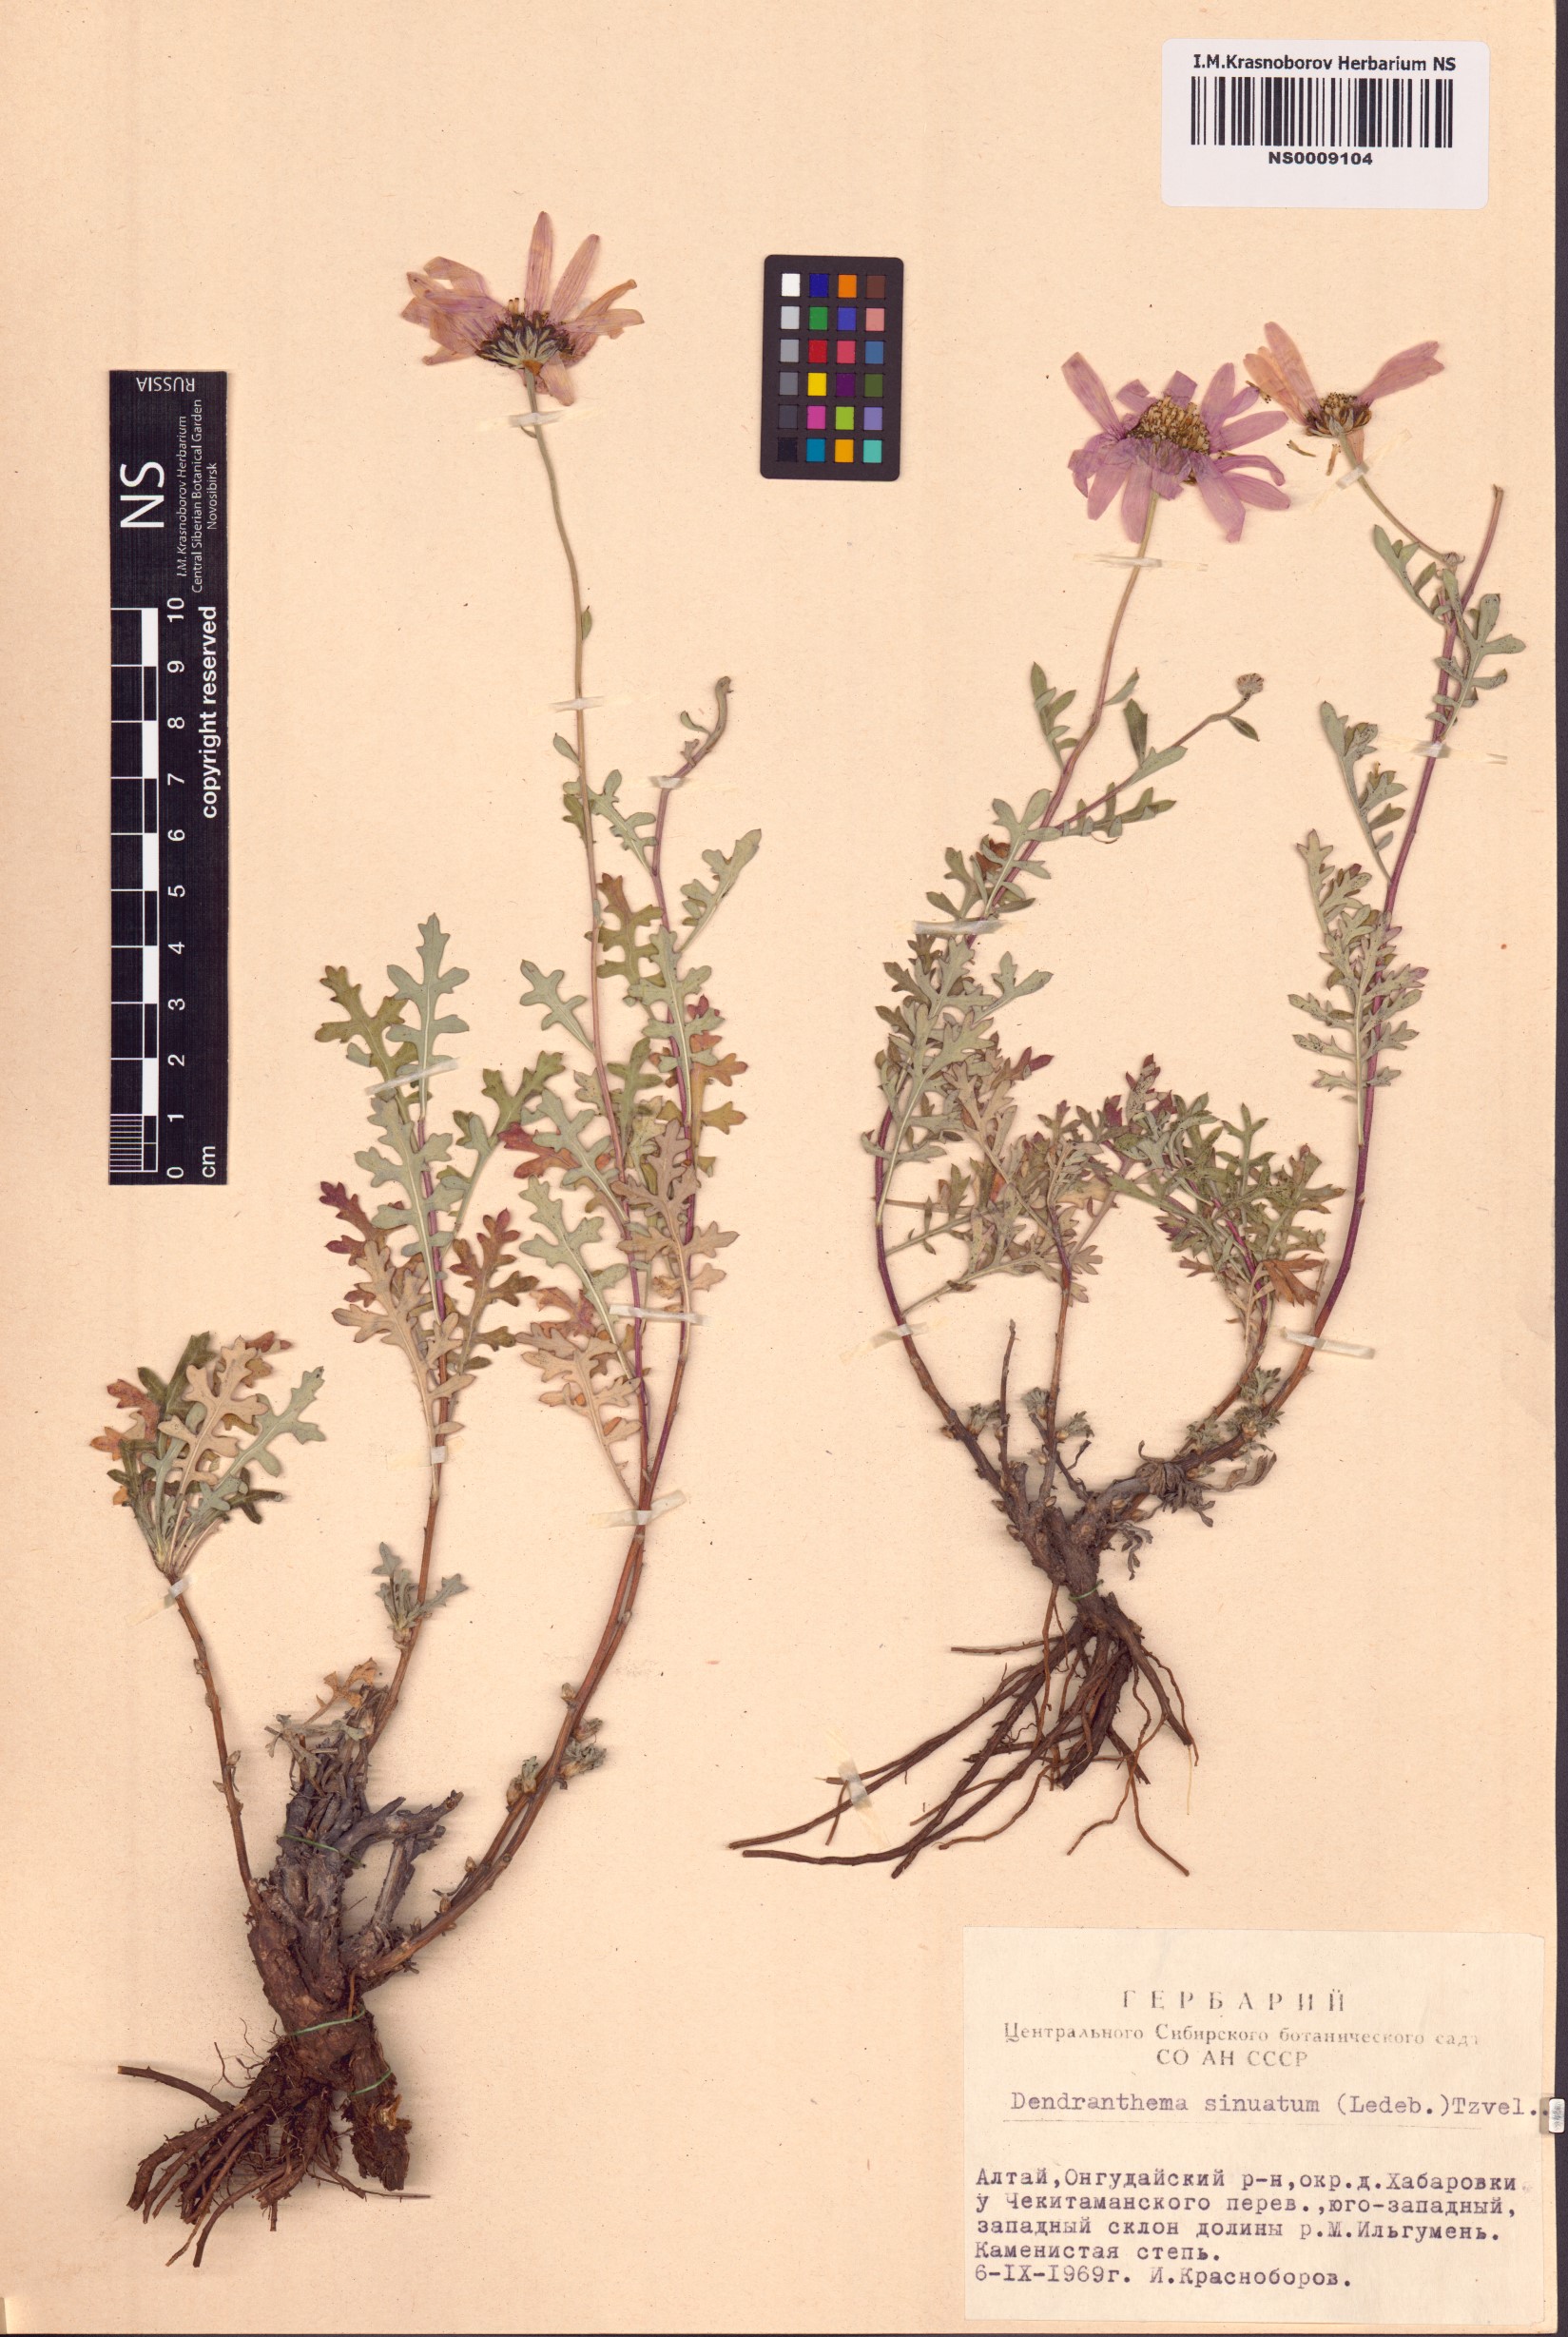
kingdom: Plantae
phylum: Tracheophyta
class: Magnoliopsida
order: Asterales
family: Asteraceae
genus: Chrysanthemum
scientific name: Chrysanthemum sinuatum
